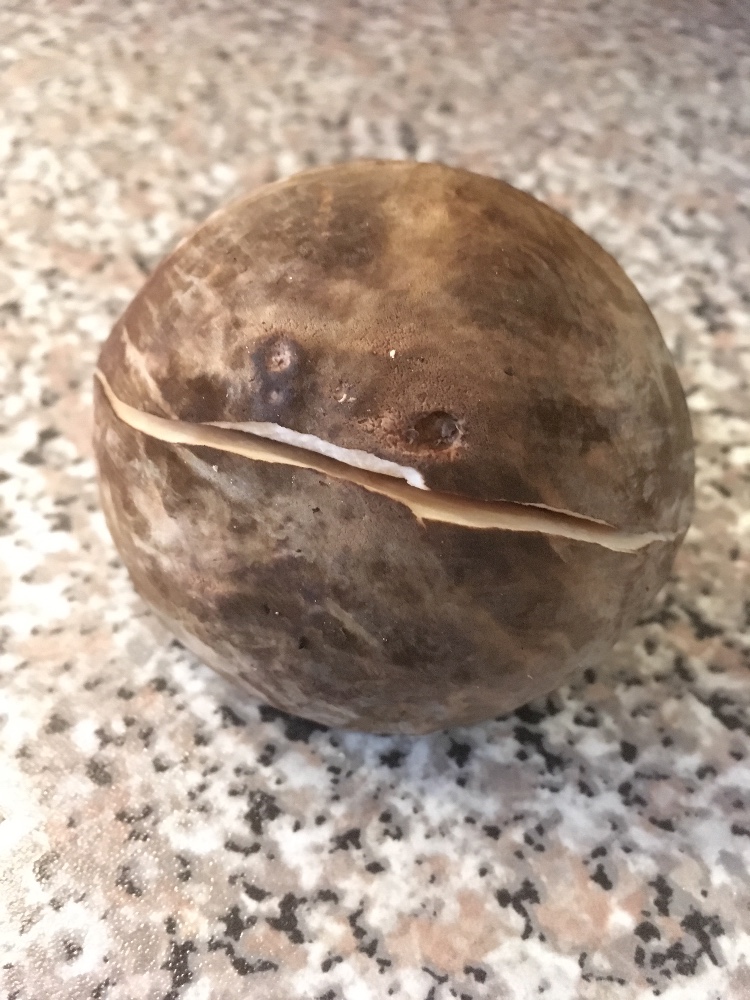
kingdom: Fungi
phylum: Basidiomycota
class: Agaricomycetes
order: Boletales
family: Boletaceae
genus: Porphyrellus
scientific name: Porphyrellus porphyrosporus
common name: sodrørhat
